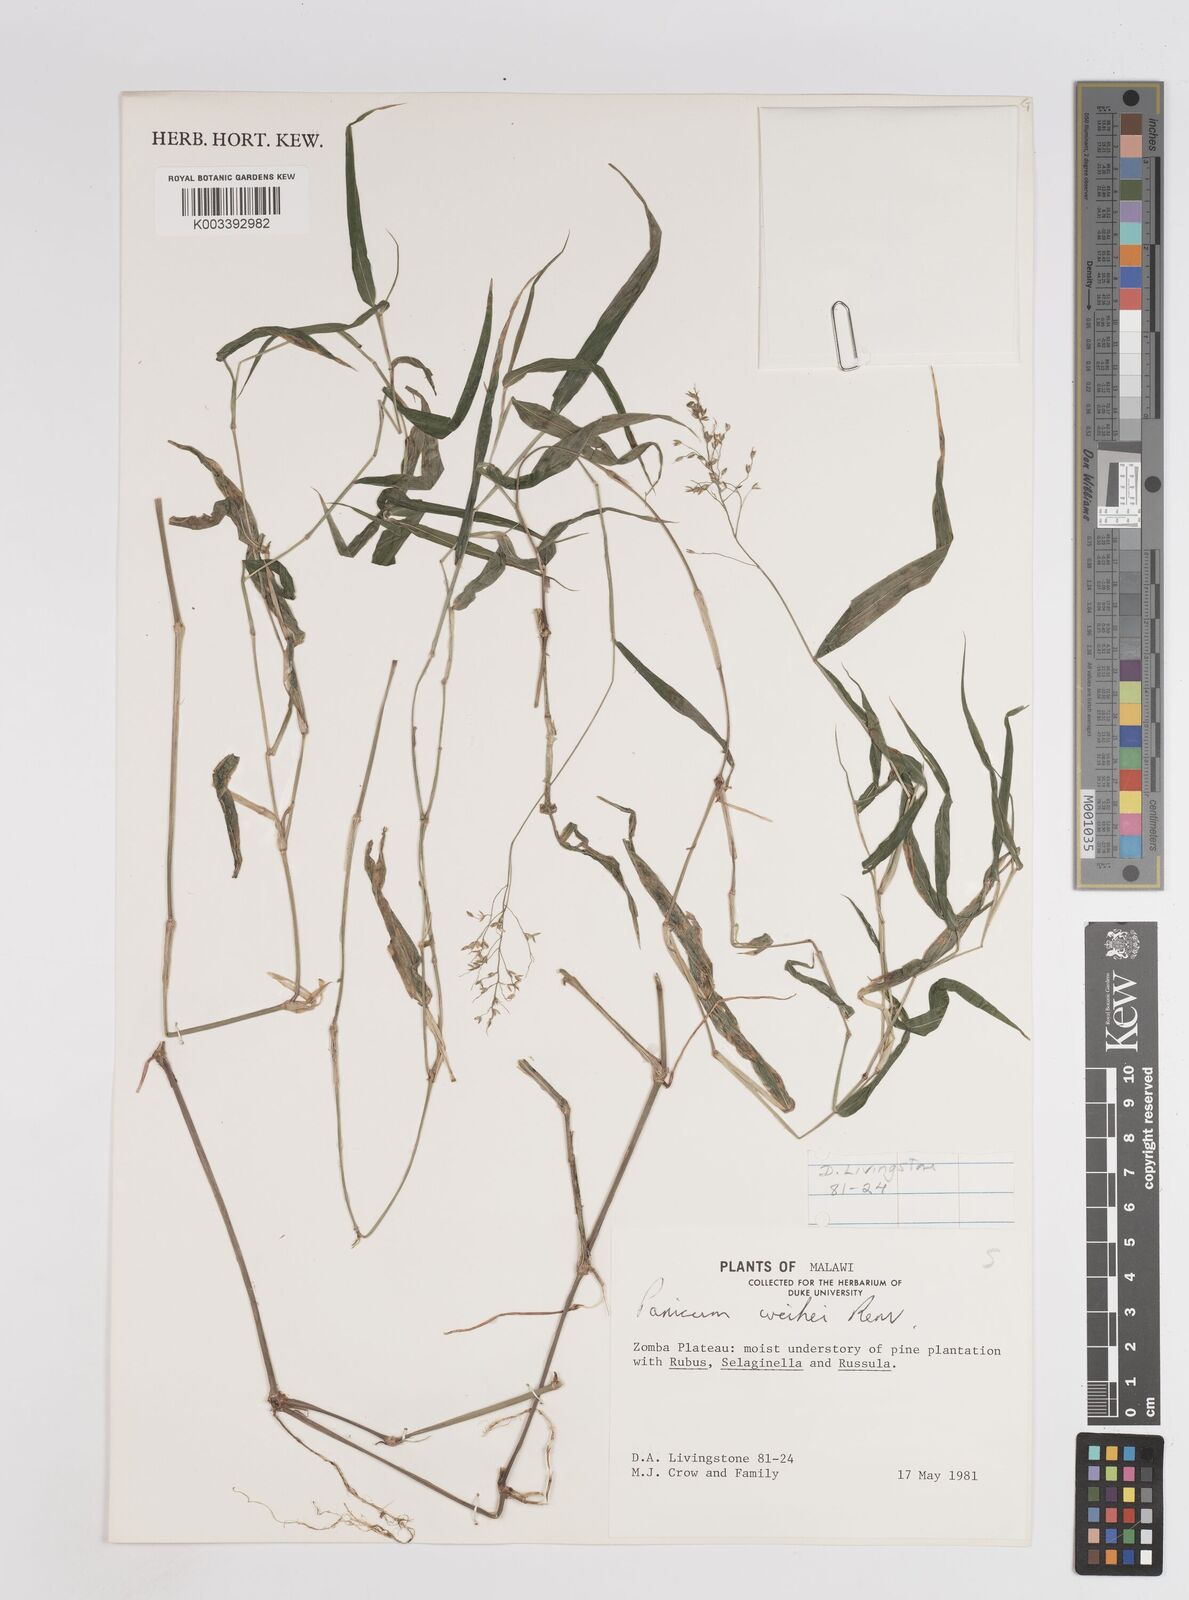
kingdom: Plantae
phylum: Tracheophyta
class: Liliopsida
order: Poales
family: Poaceae
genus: Panicum
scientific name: Panicum wiehei
